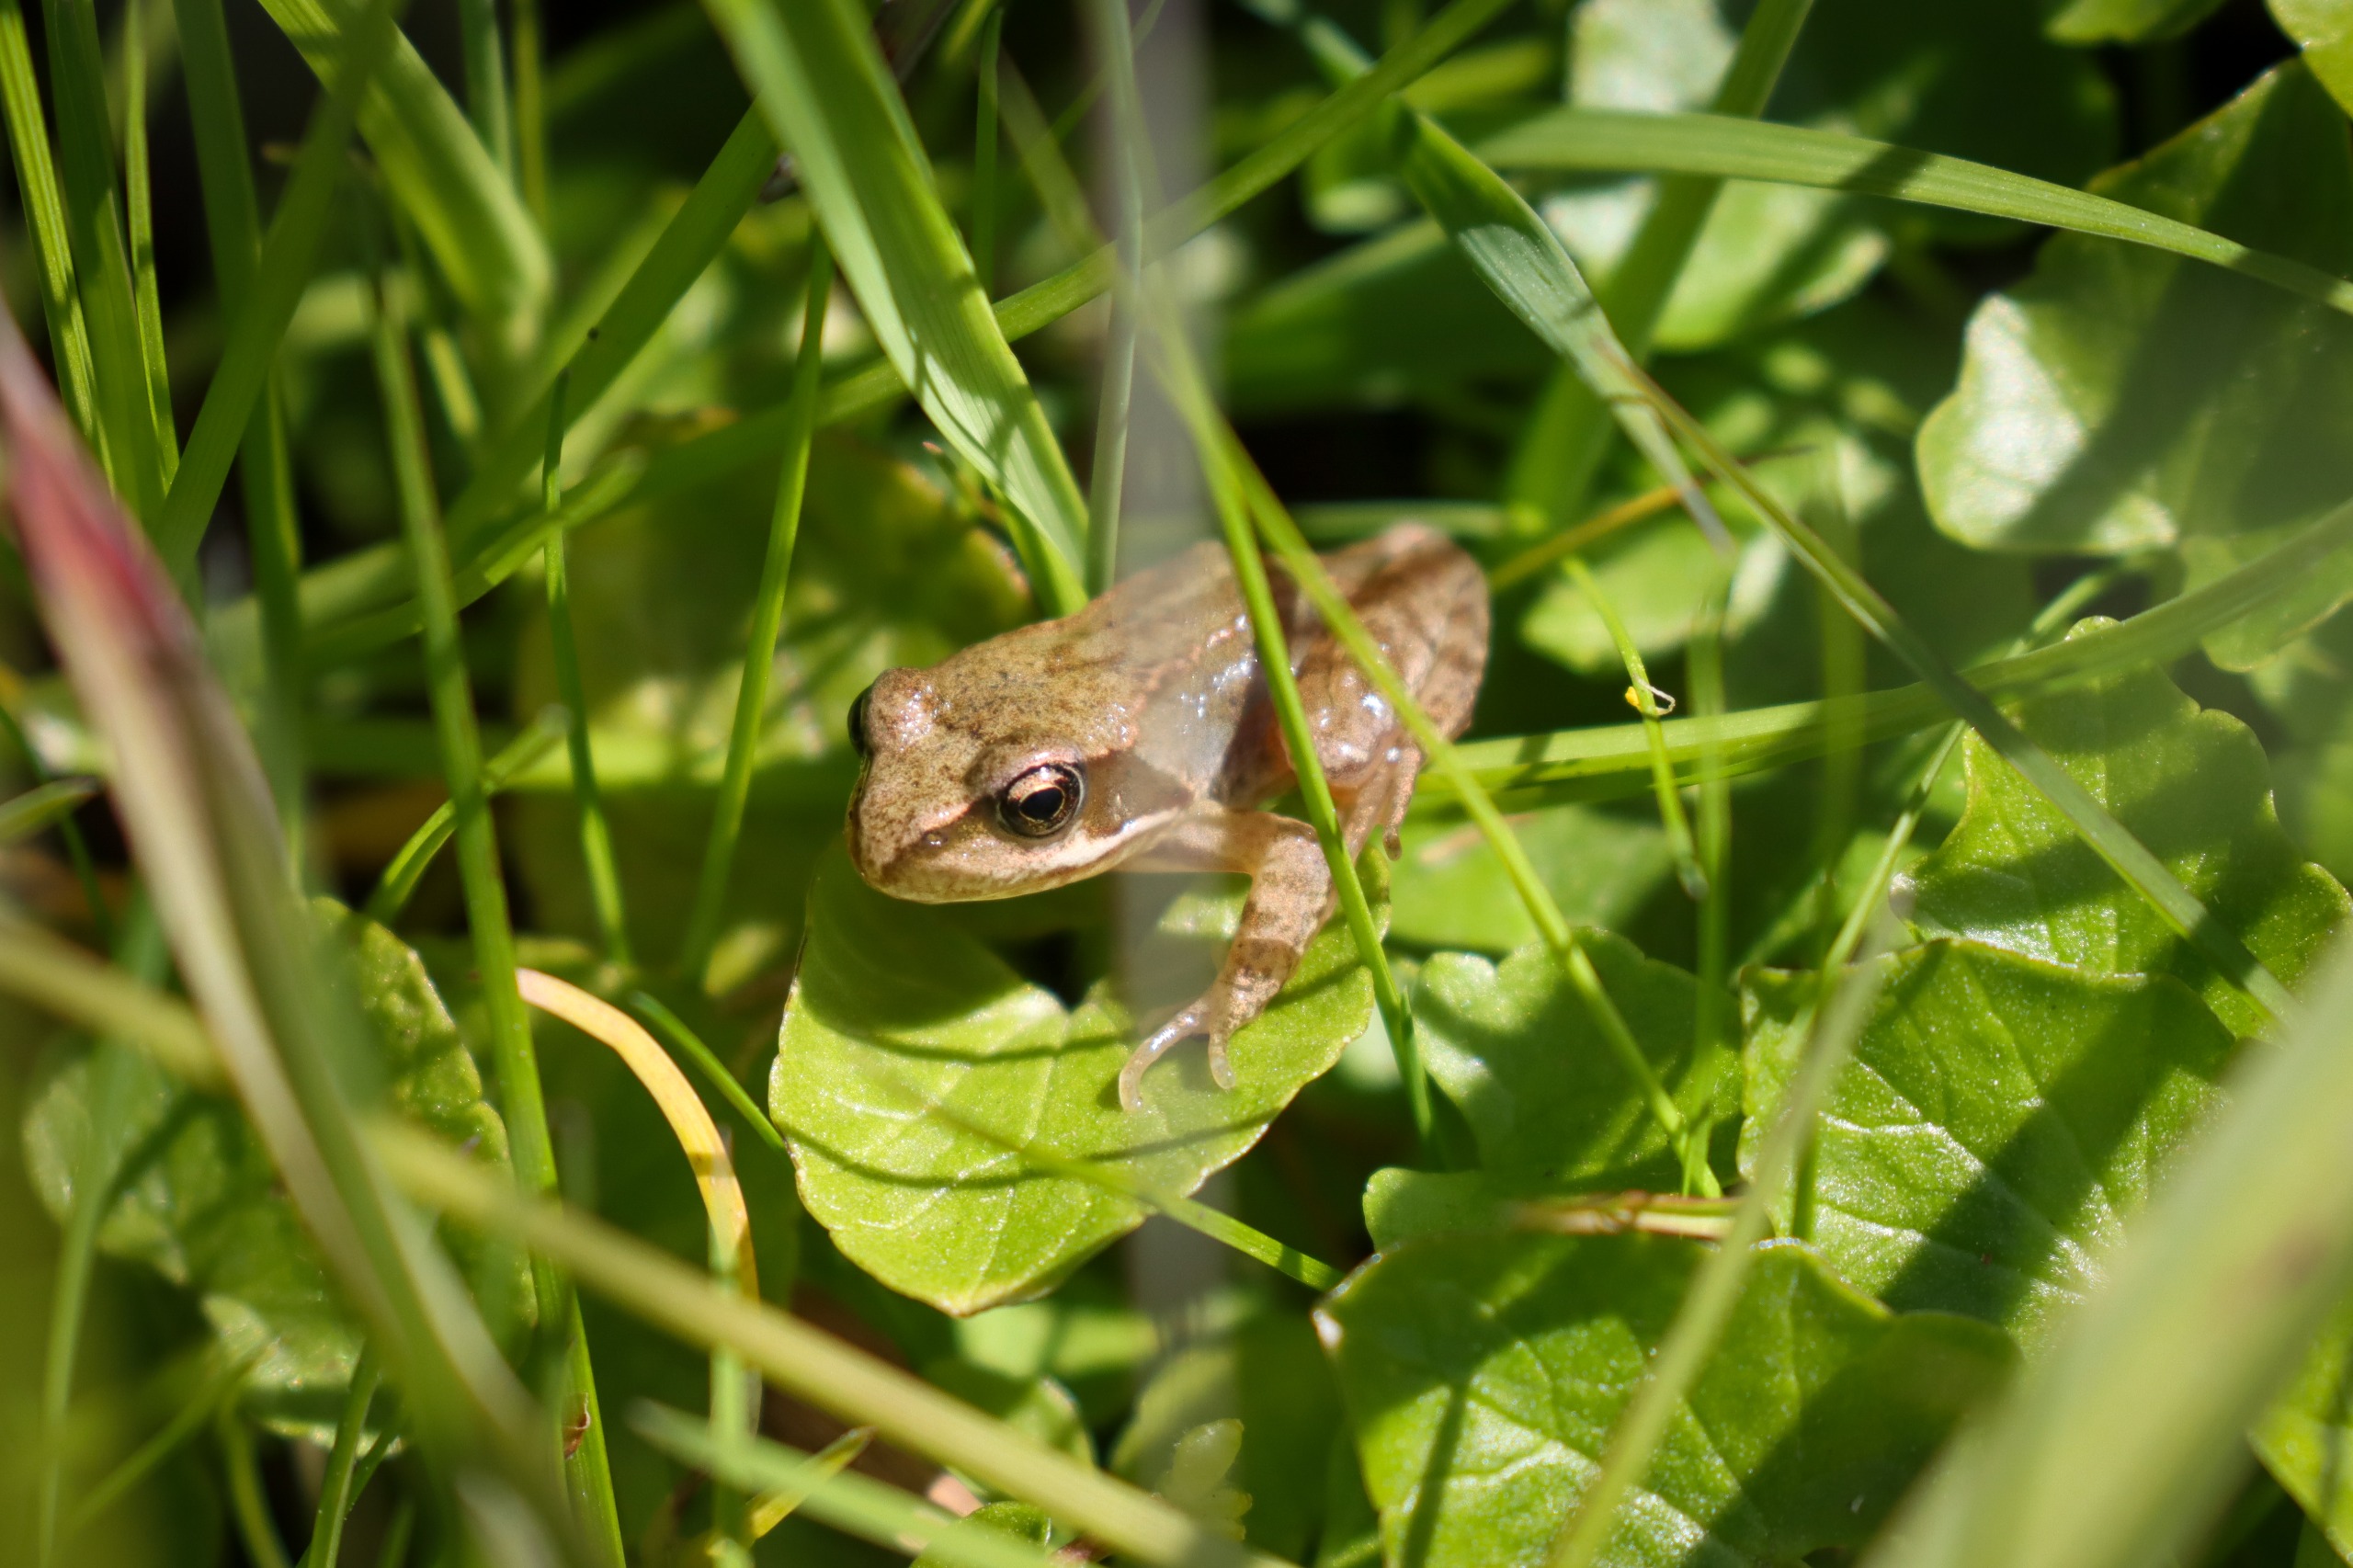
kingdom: Animalia
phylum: Chordata
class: Amphibia
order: Anura
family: Ranidae
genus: Rana
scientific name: Rana temporaria
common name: Butsnudet frø
